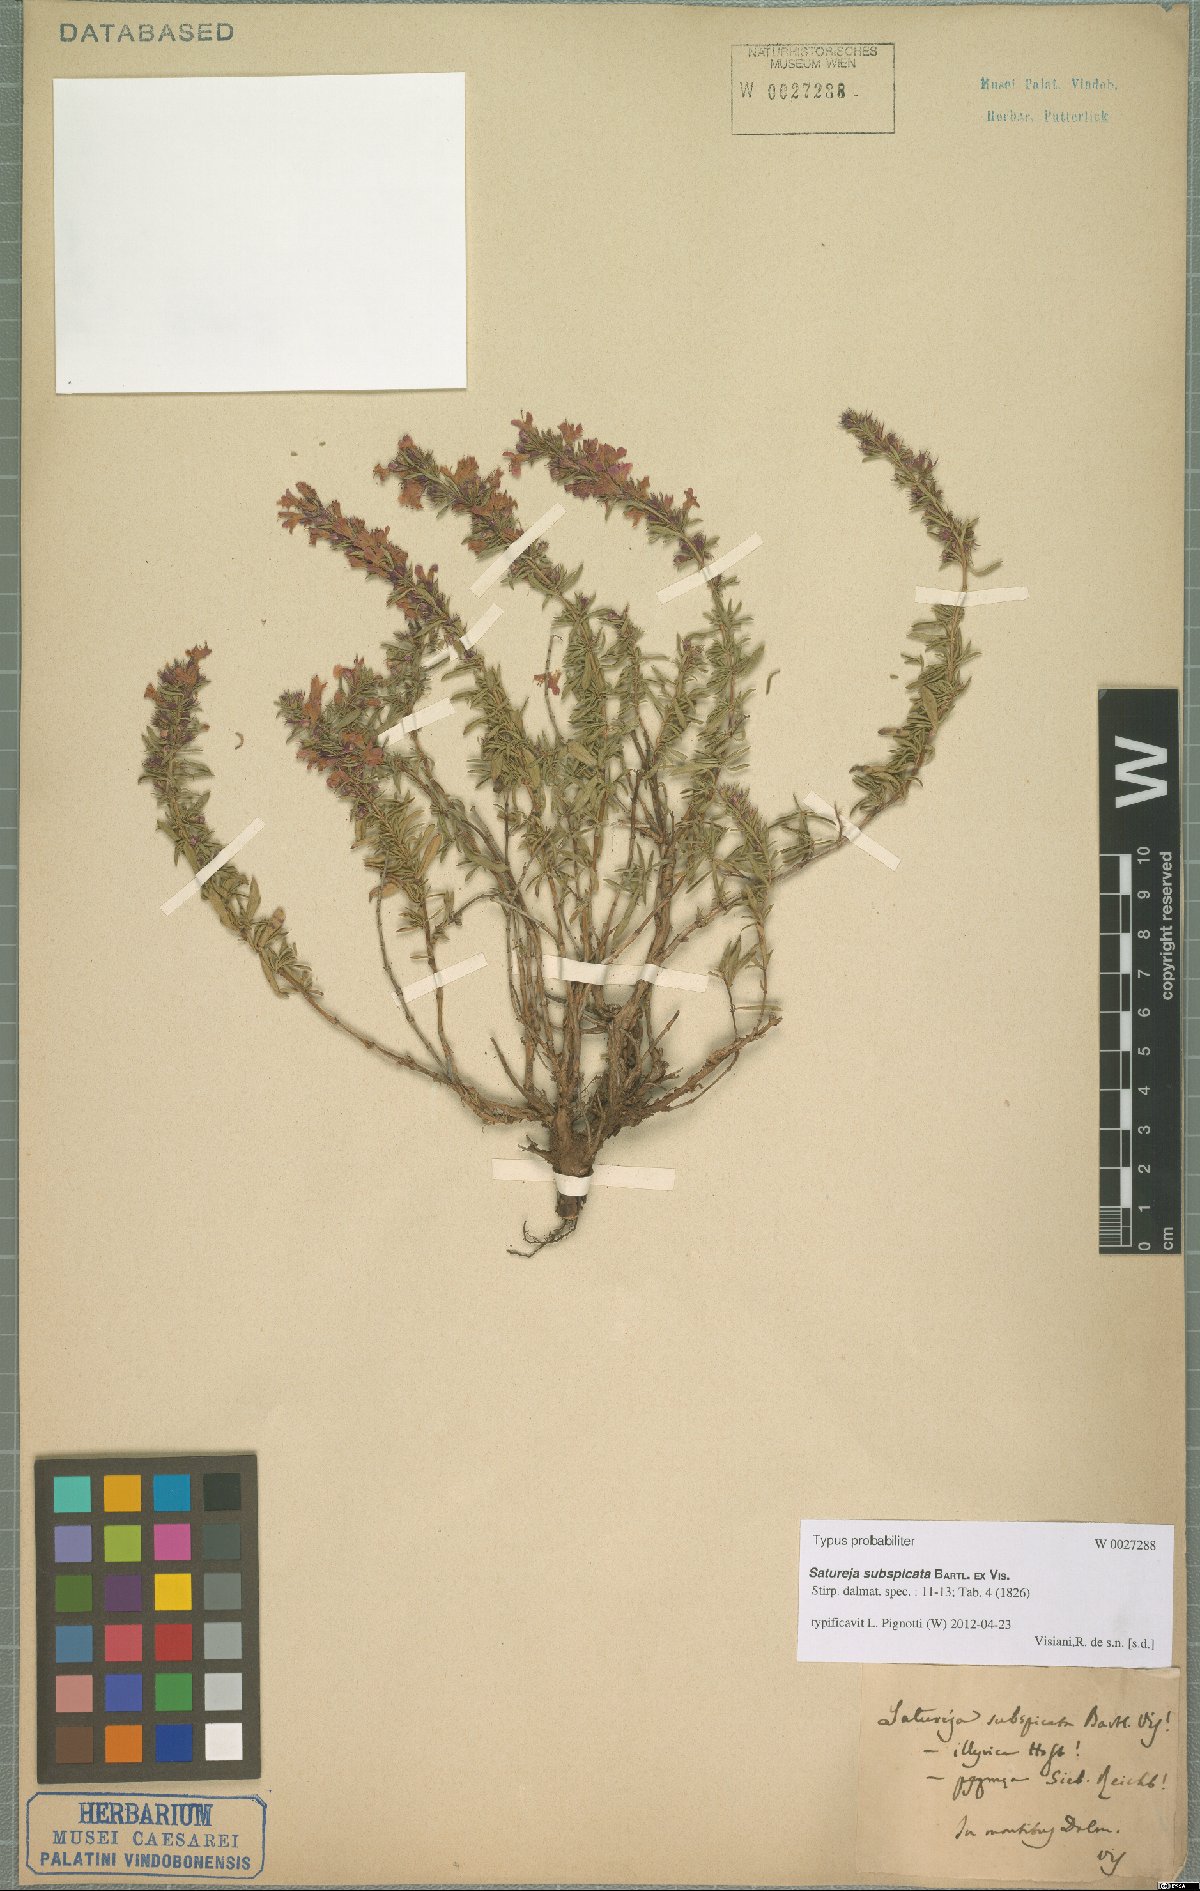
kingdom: Plantae
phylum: Tracheophyta
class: Magnoliopsida
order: Lamiales
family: Lamiaceae
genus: Satureja
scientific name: Satureja subspicata
